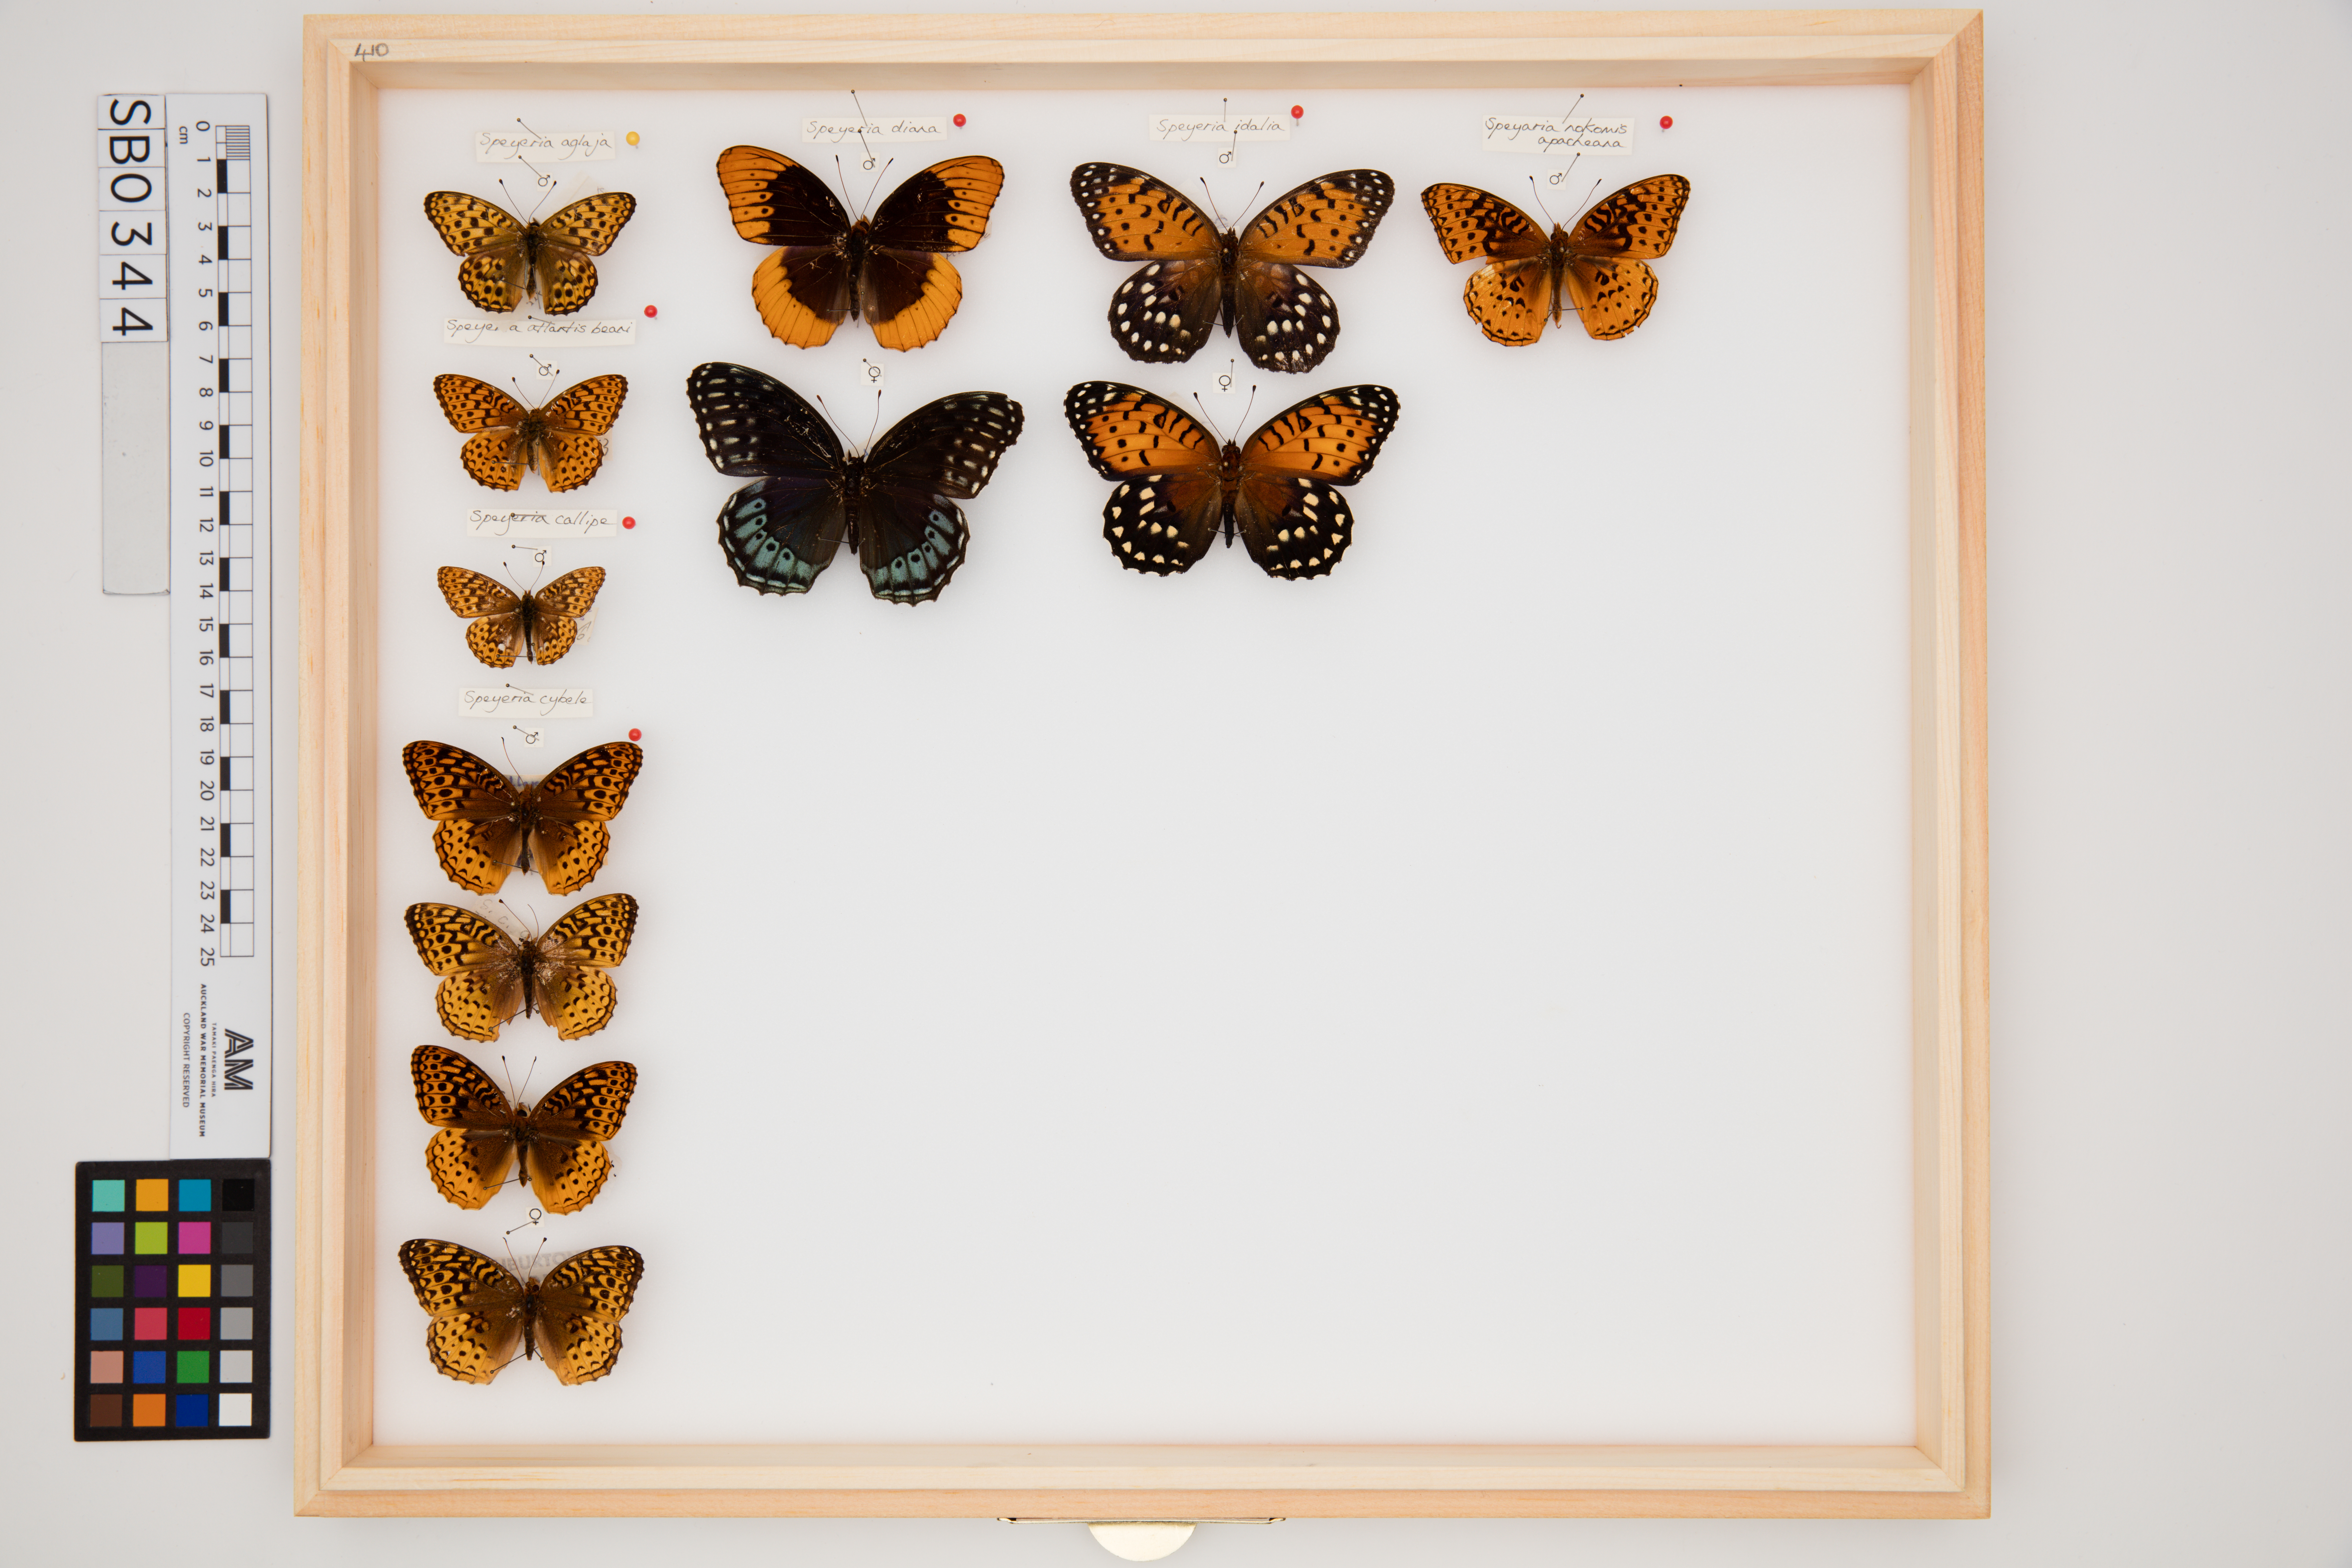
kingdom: Animalia
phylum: Arthropoda
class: Insecta
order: Lepidoptera
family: Nymphalidae
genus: Speyeria
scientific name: Speyeria cybele
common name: Great spangled fritillary
